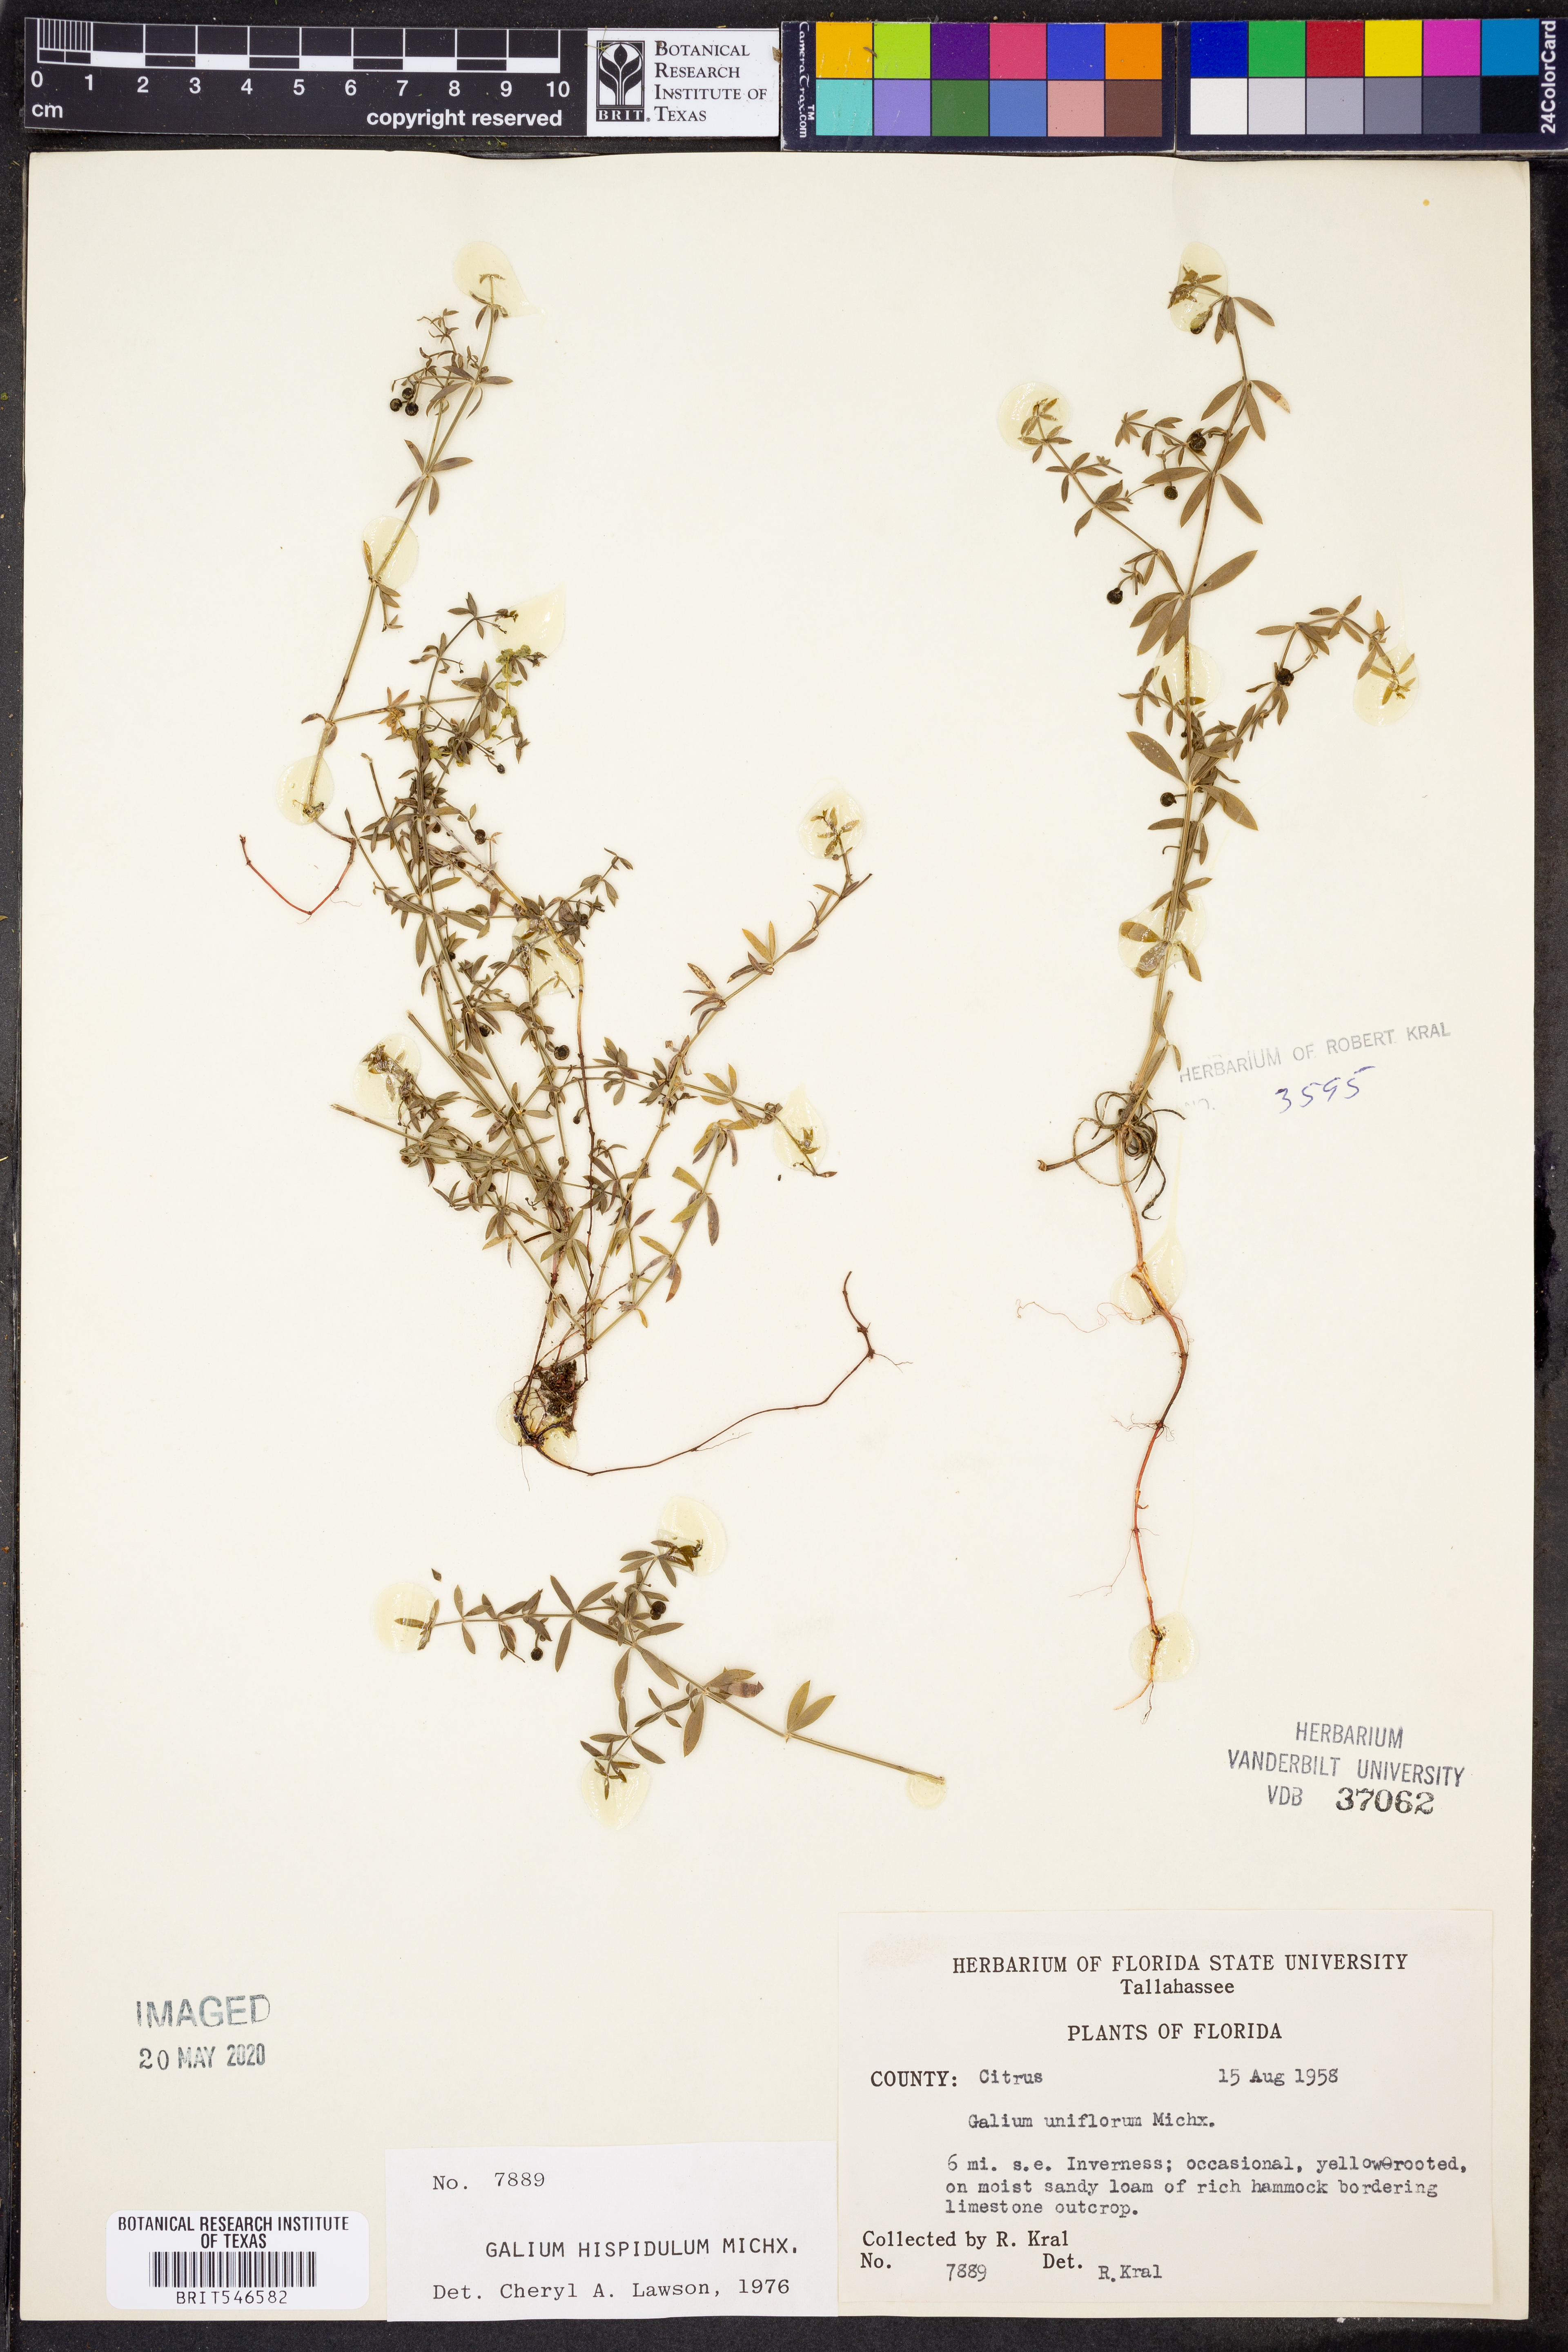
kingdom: Plantae
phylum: Tracheophyta
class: Magnoliopsida
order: Gentianales
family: Rubiaceae
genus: Galium
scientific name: Galium bermudense
